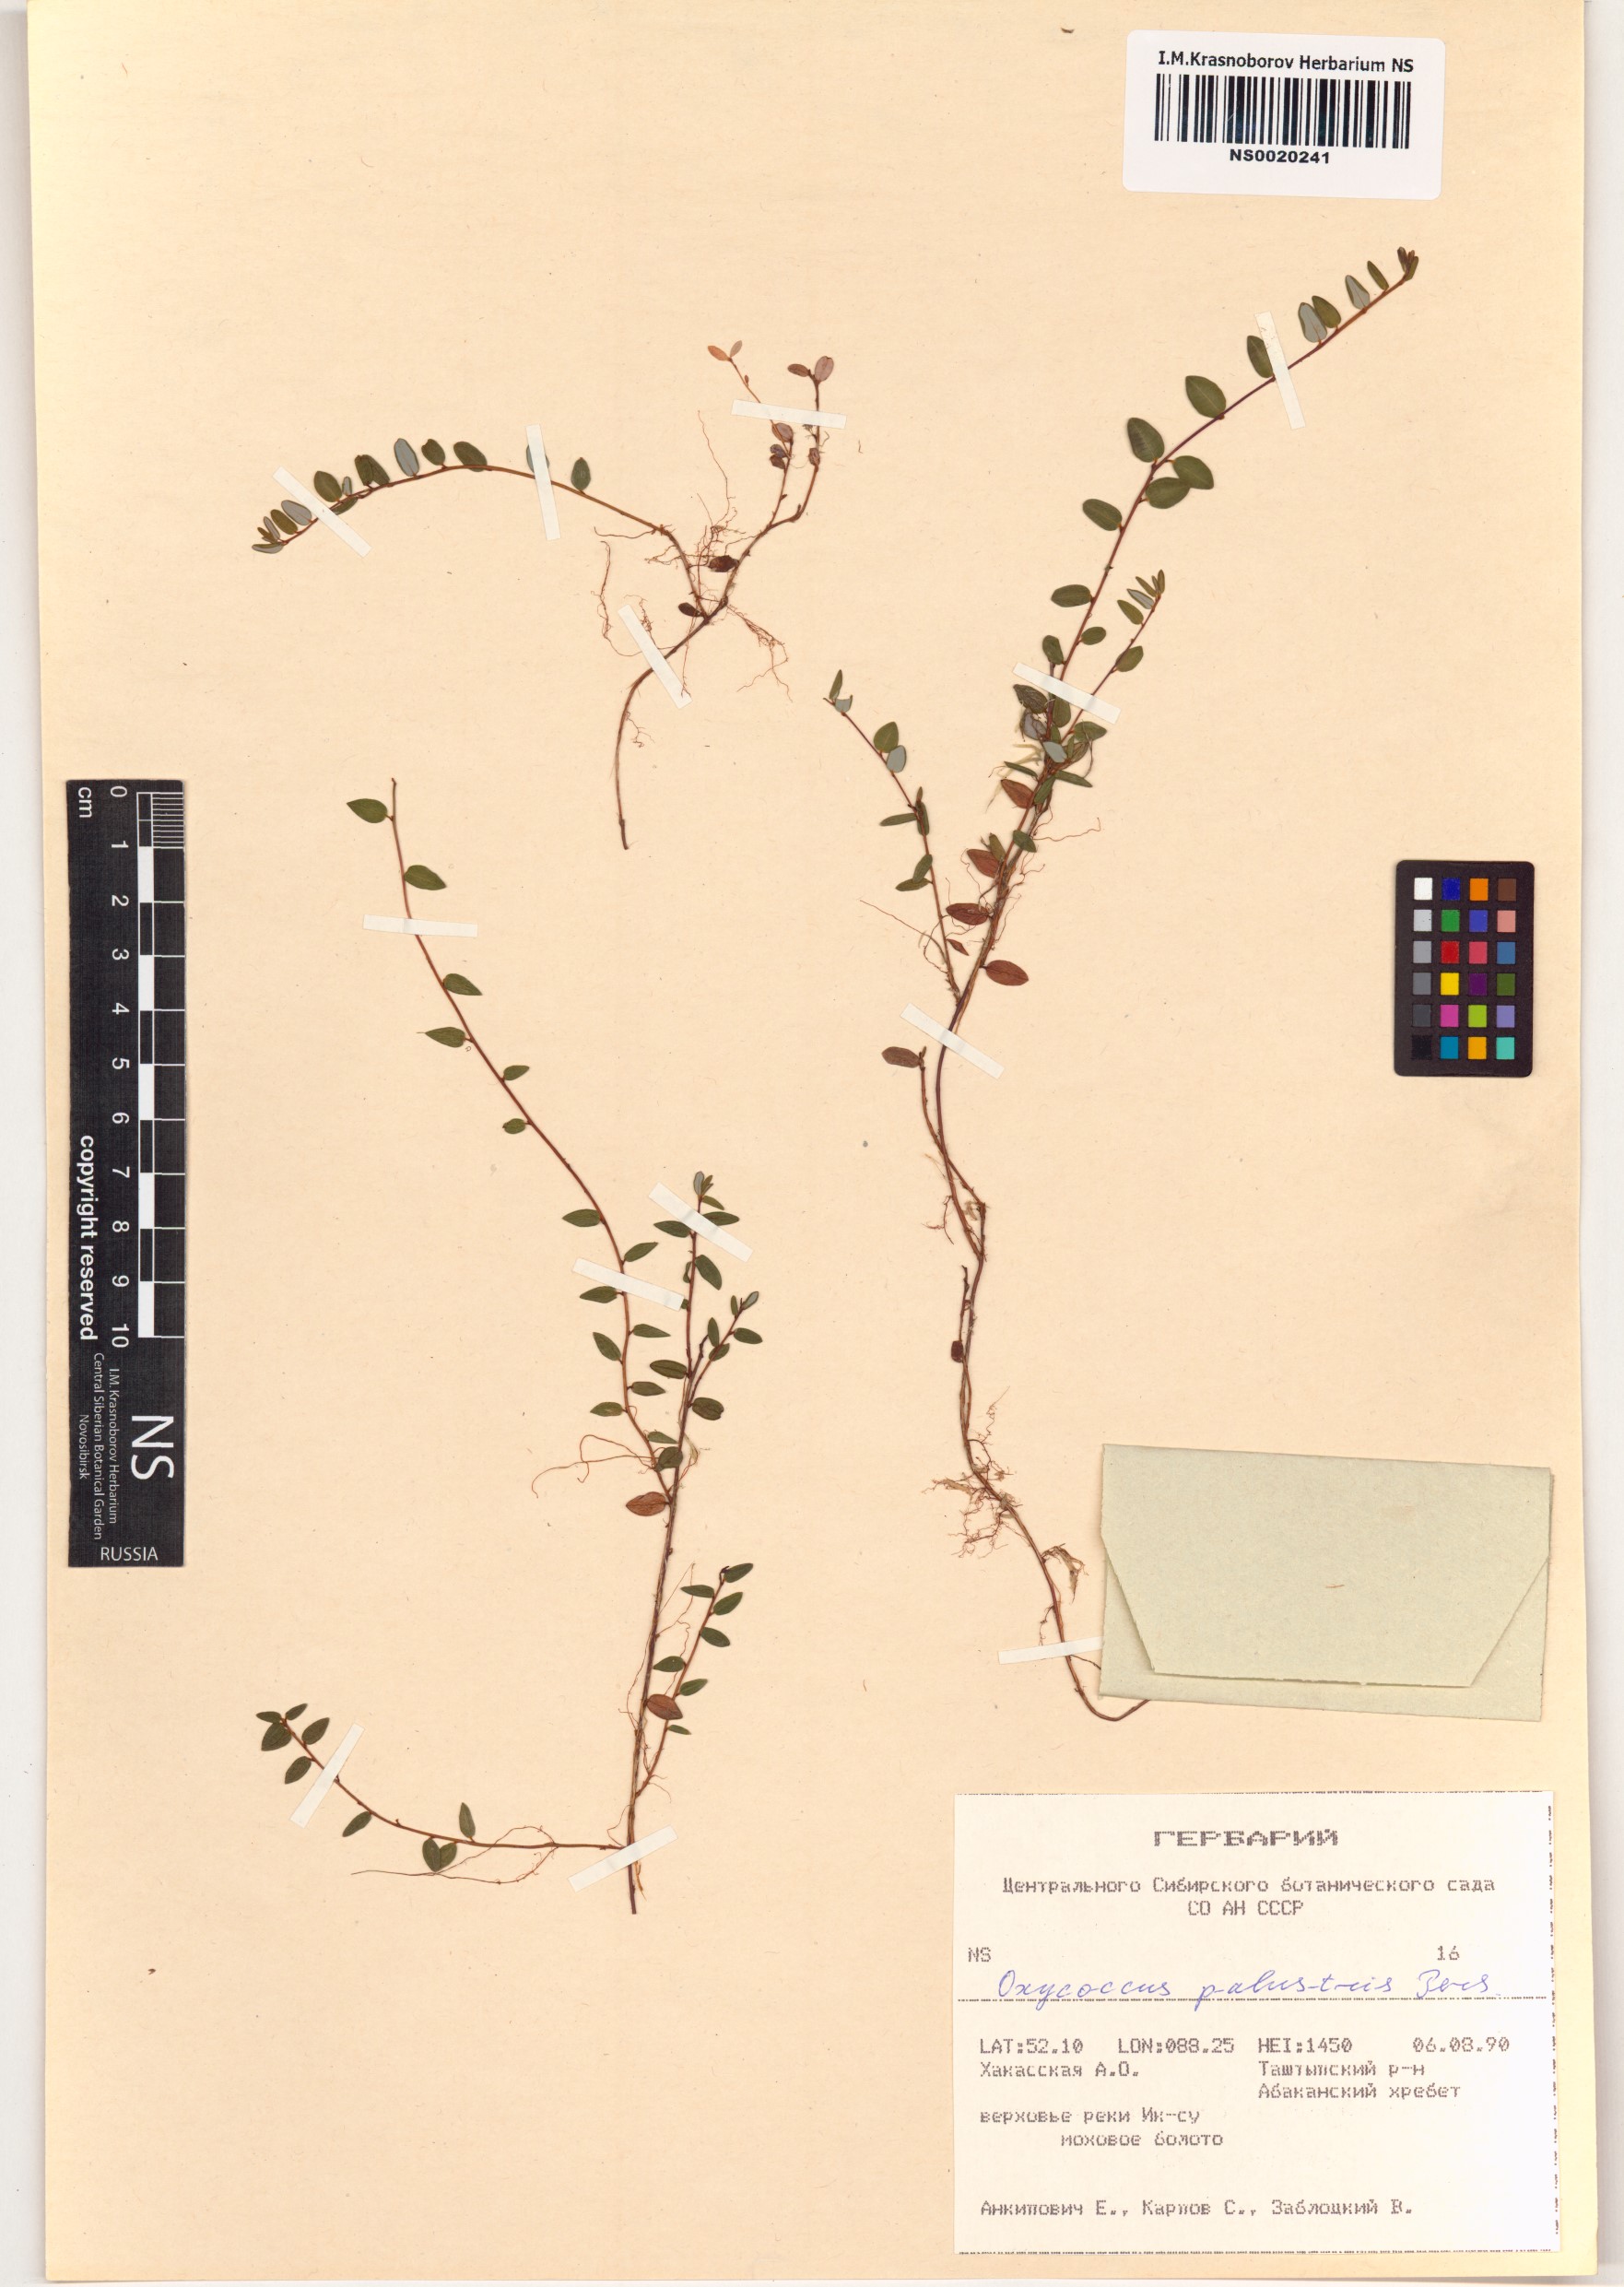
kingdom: Plantae
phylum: Tracheophyta
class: Magnoliopsida
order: Ericales
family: Ericaceae
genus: Vaccinium
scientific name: Vaccinium oxycoccos
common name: Cranberry
